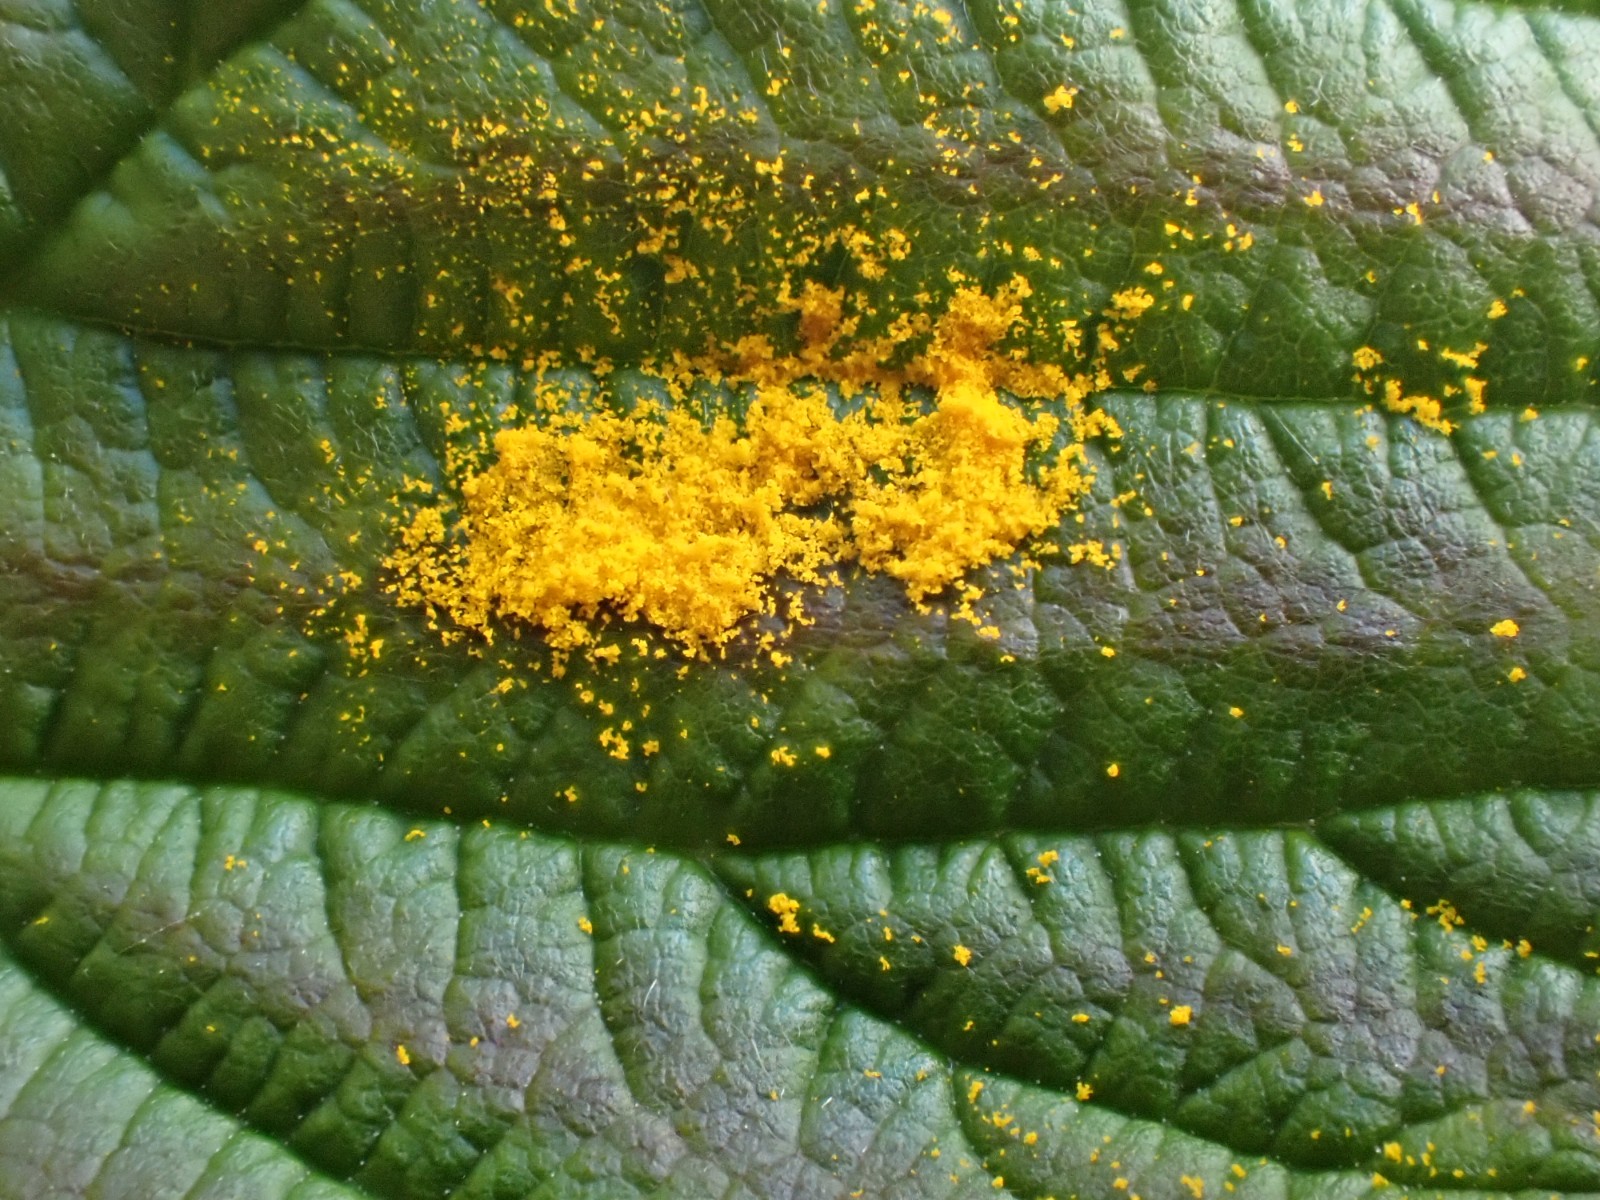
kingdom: Fungi
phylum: Basidiomycota
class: Pucciniomycetes
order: Pucciniales
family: Phragmidiaceae
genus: Phragmidium
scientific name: Phragmidium rubi-idaei
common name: hindbær-flercellerust
